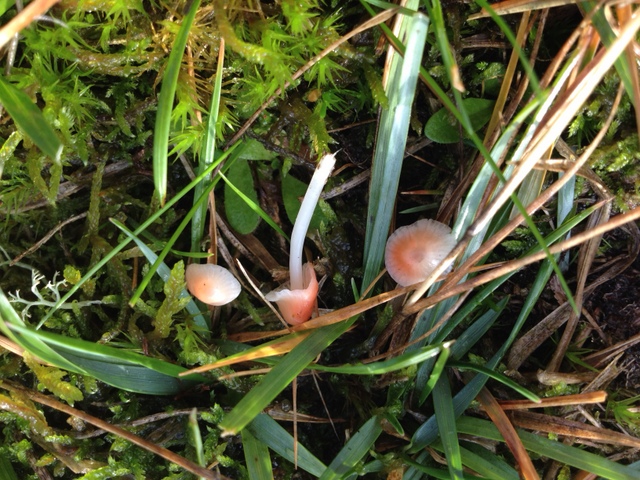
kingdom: Fungi
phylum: Basidiomycota
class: Agaricomycetes
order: Agaricales
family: Mycenaceae
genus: Atheniella
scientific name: Atheniella adonis
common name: rønnerød huesvamp
